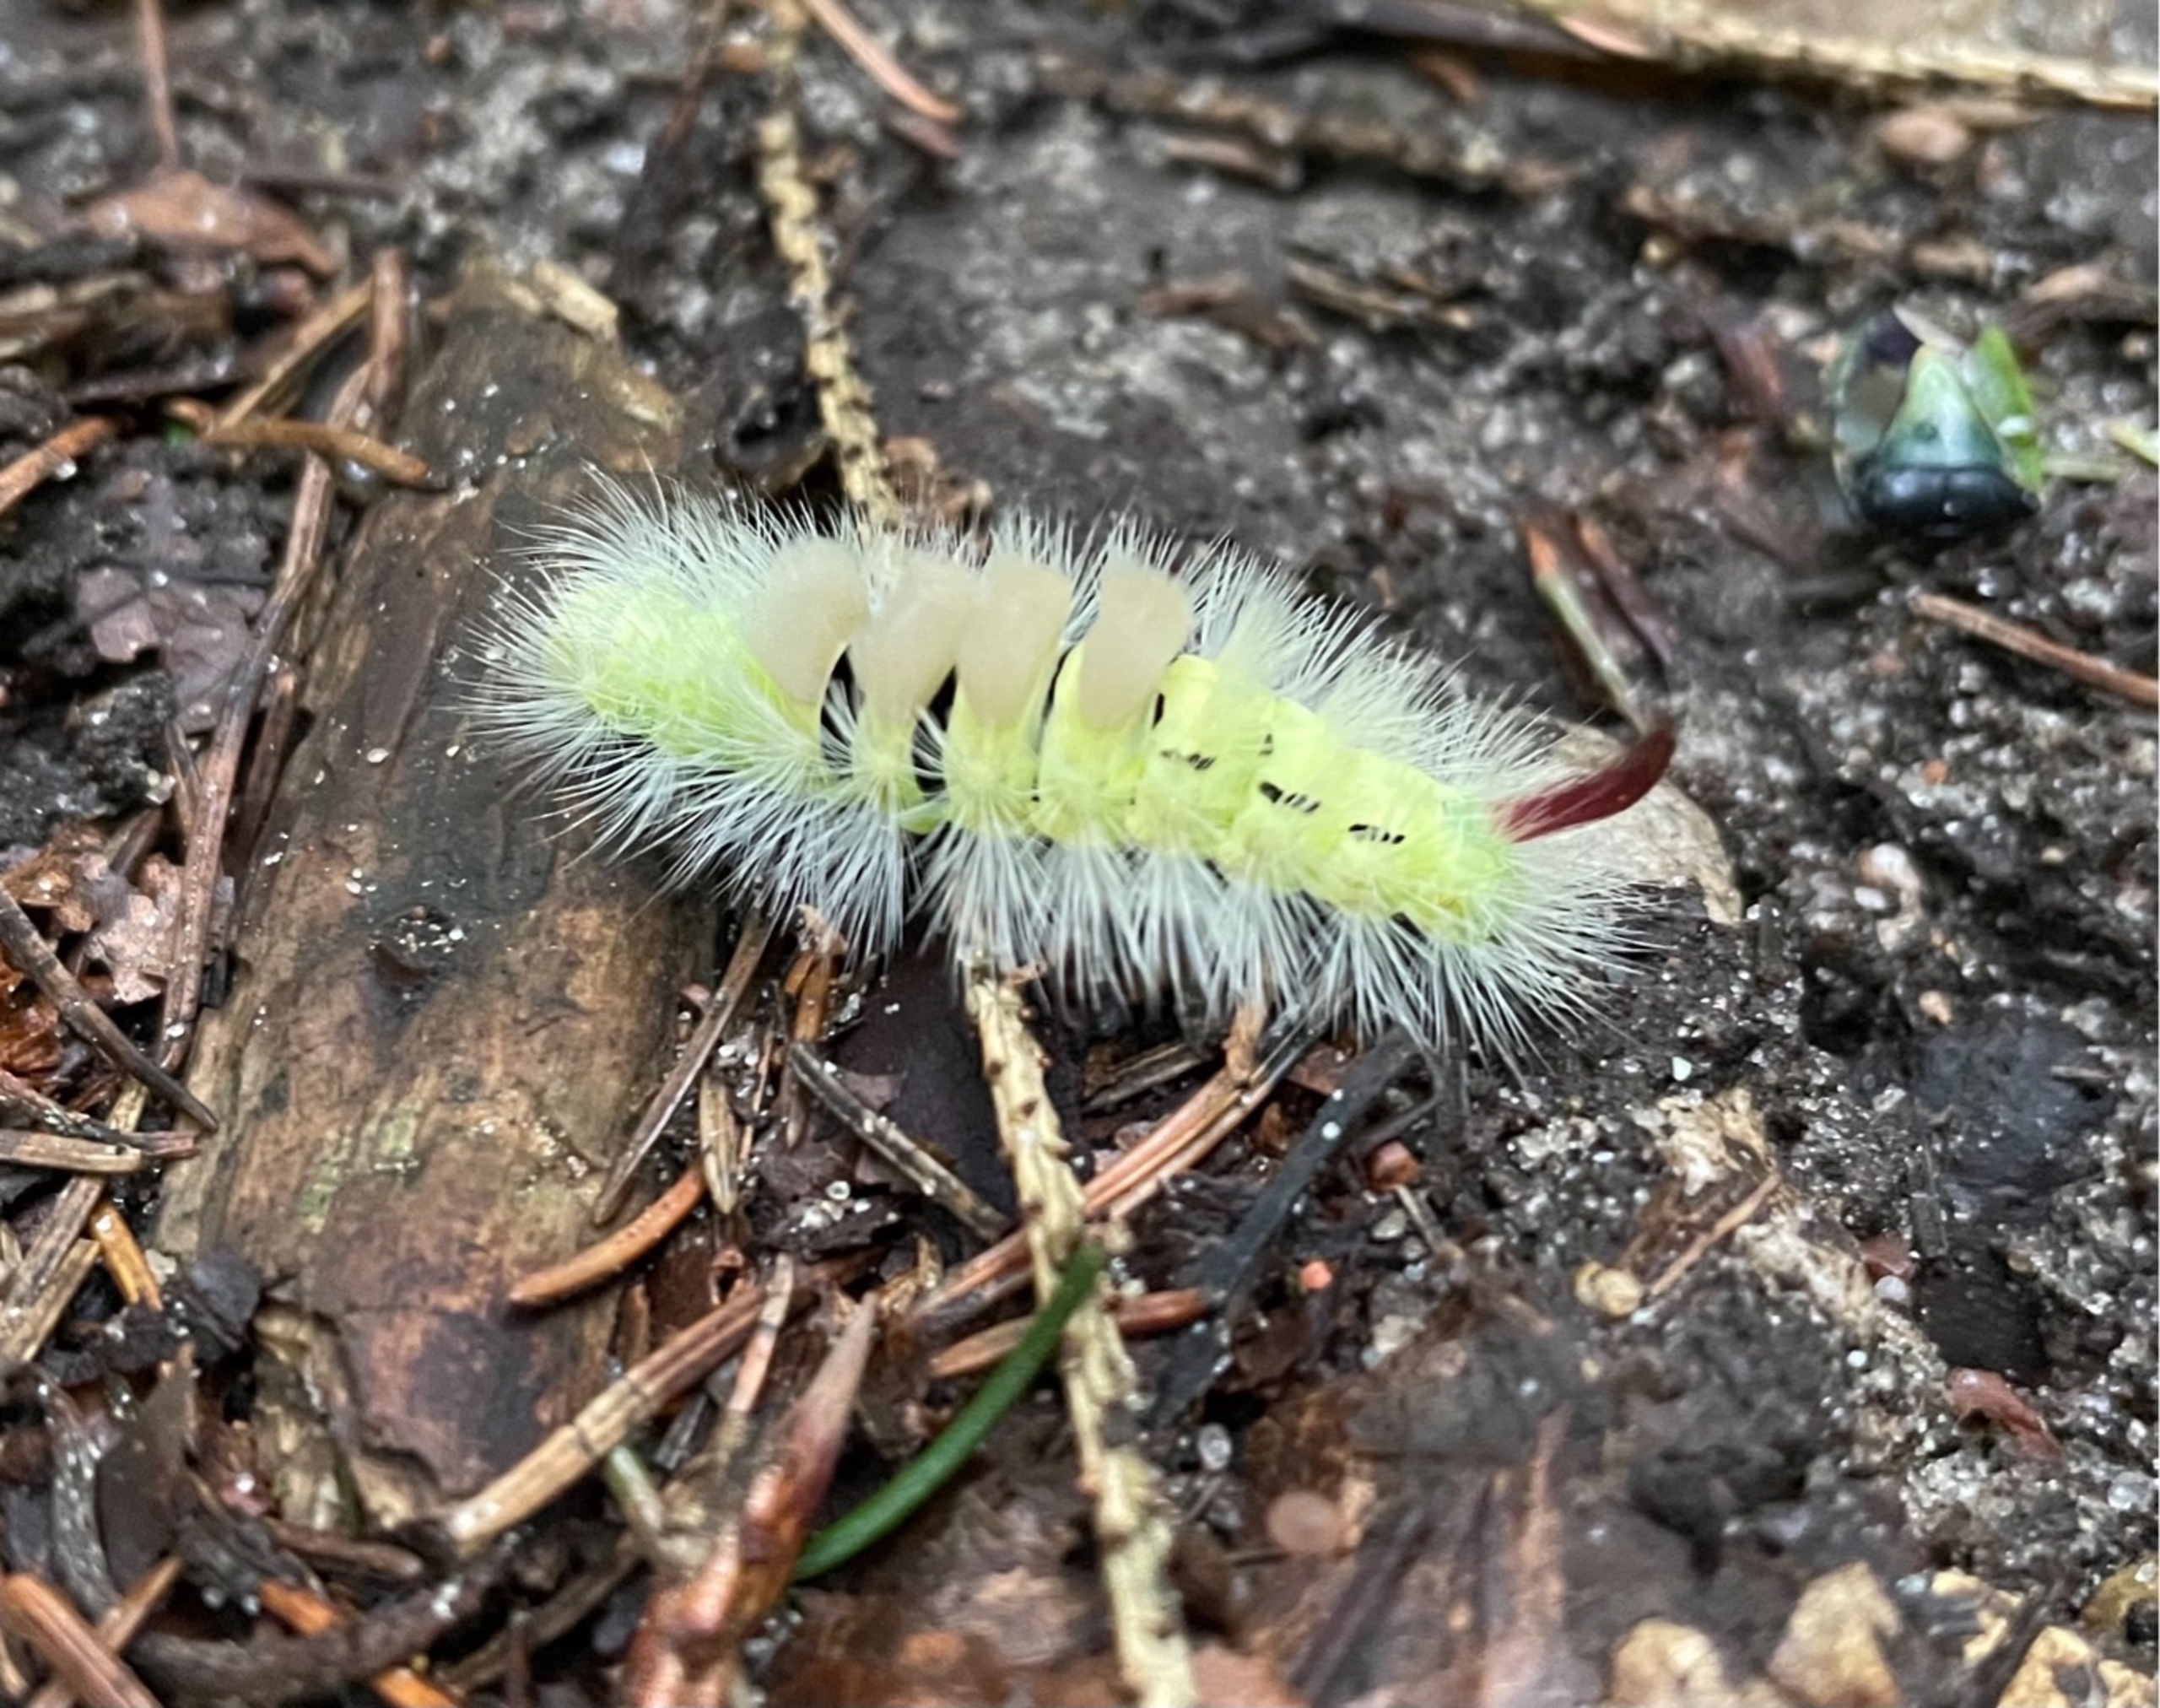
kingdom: Animalia
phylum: Arthropoda
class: Insecta
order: Lepidoptera
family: Erebidae
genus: Calliteara
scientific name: Calliteara pudibunda
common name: Bøgenonne
